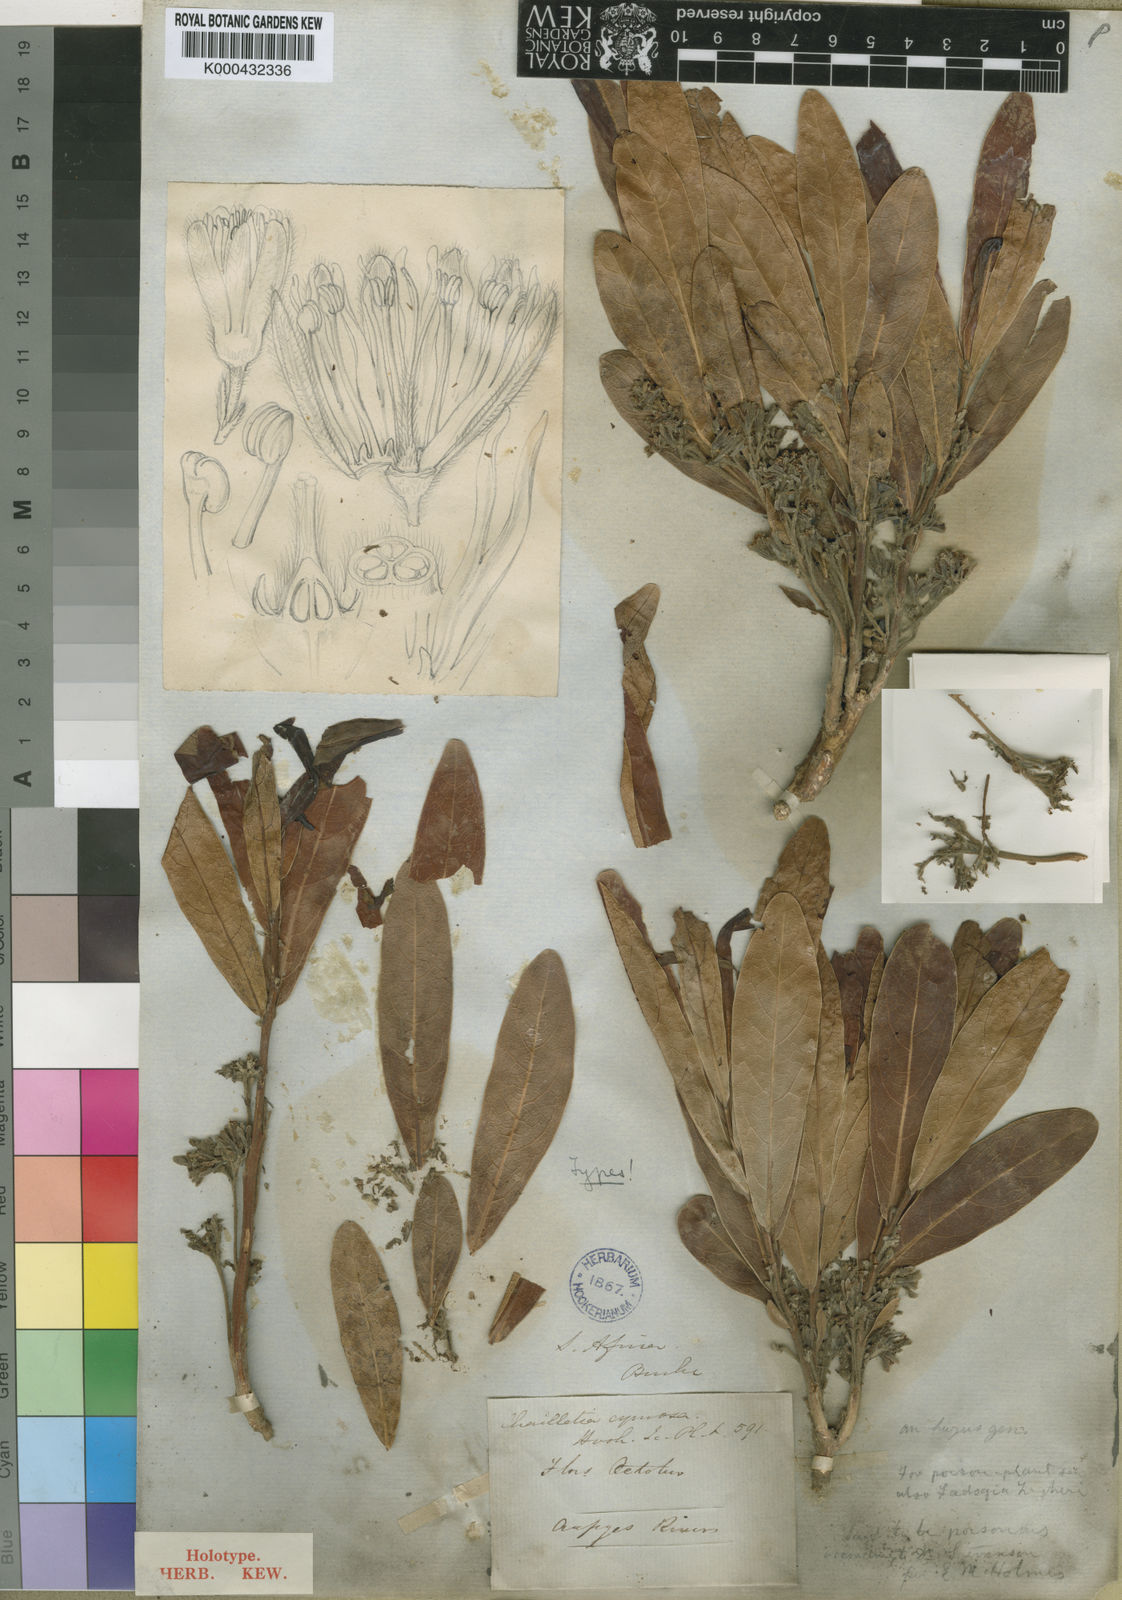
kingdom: Plantae
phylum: Tracheophyta
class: Magnoliopsida
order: Malpighiales
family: Dichapetalaceae
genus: Dichapetalum
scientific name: Dichapetalum cymosum
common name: Poison leaf
